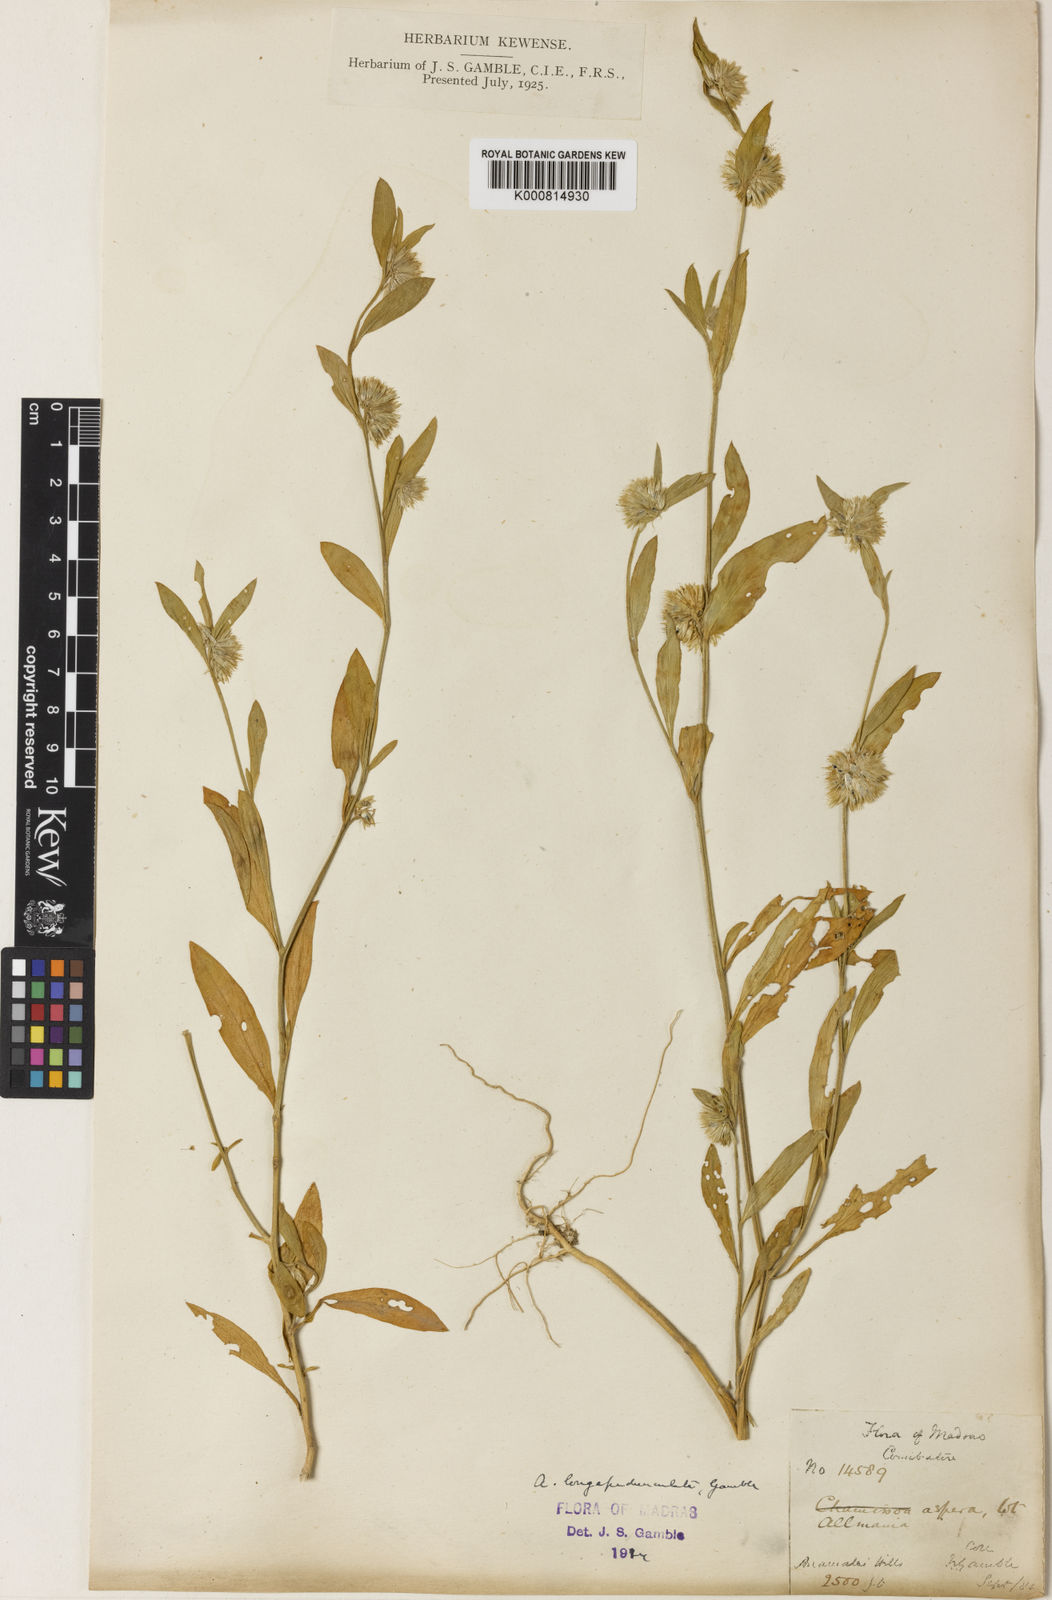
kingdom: Plantae
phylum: Tracheophyta
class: Magnoliopsida
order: Caryophyllales
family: Amaranthaceae
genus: Allmania
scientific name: Allmania nodiflora
